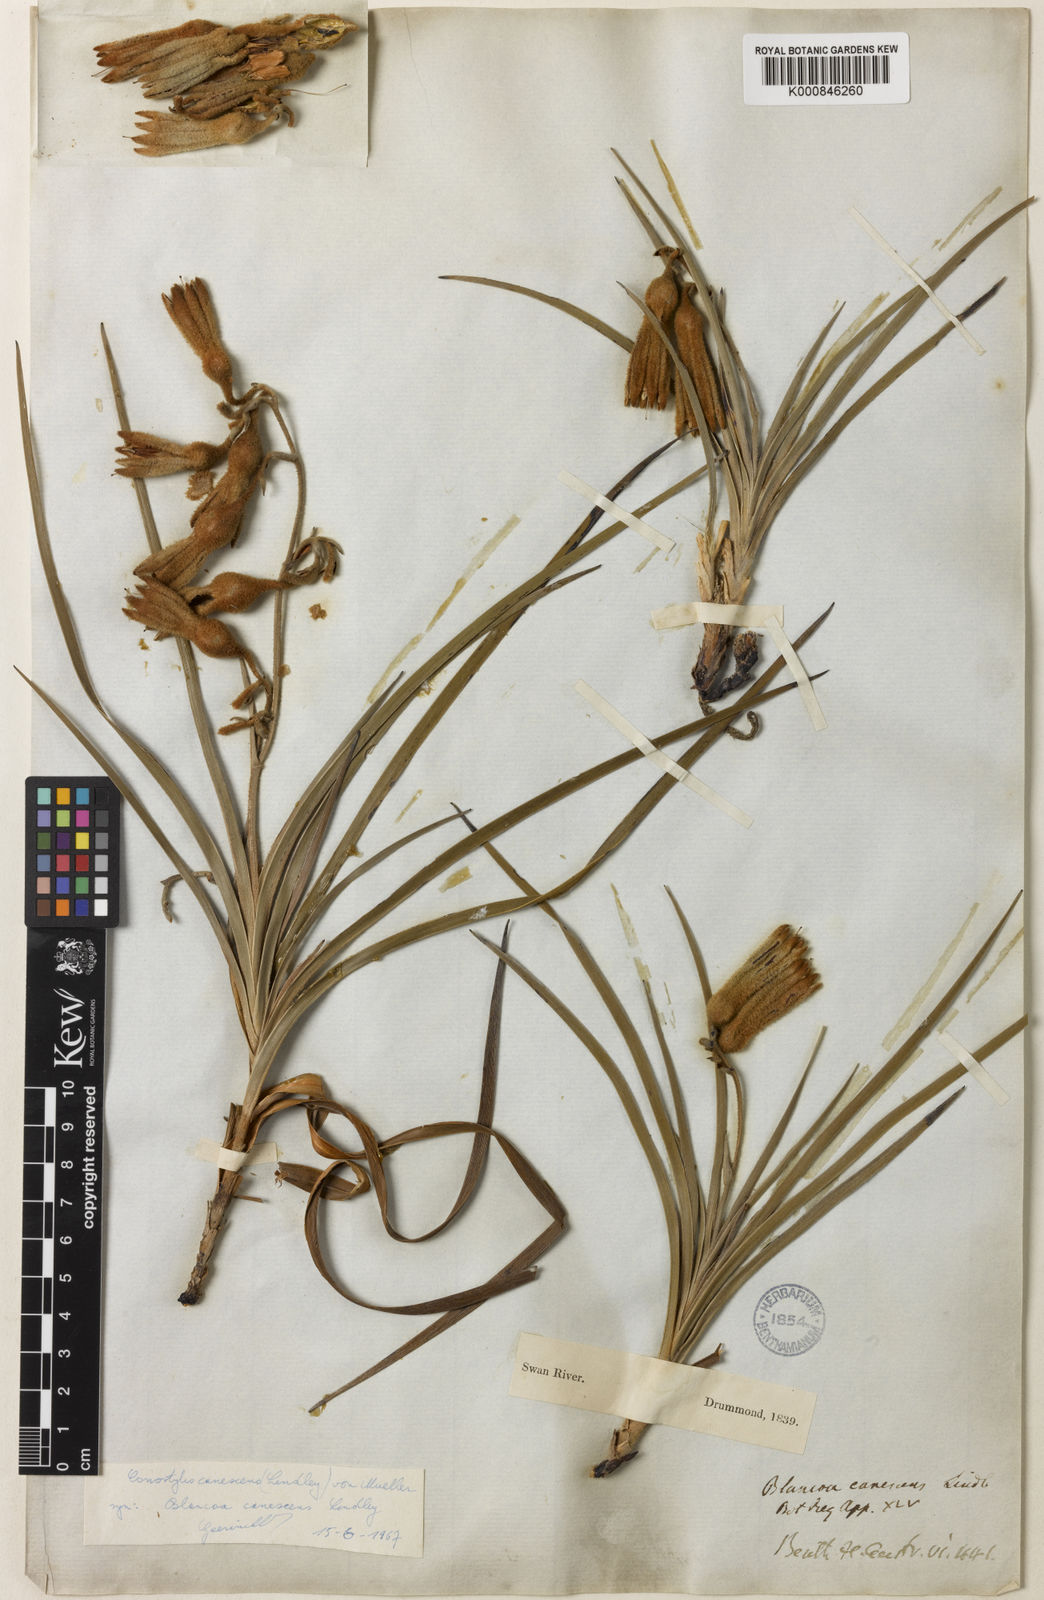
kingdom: Plantae
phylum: Tracheophyta
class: Liliopsida
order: Commelinales
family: Haemodoraceae
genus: Blancoa
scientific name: Blancoa canescens
